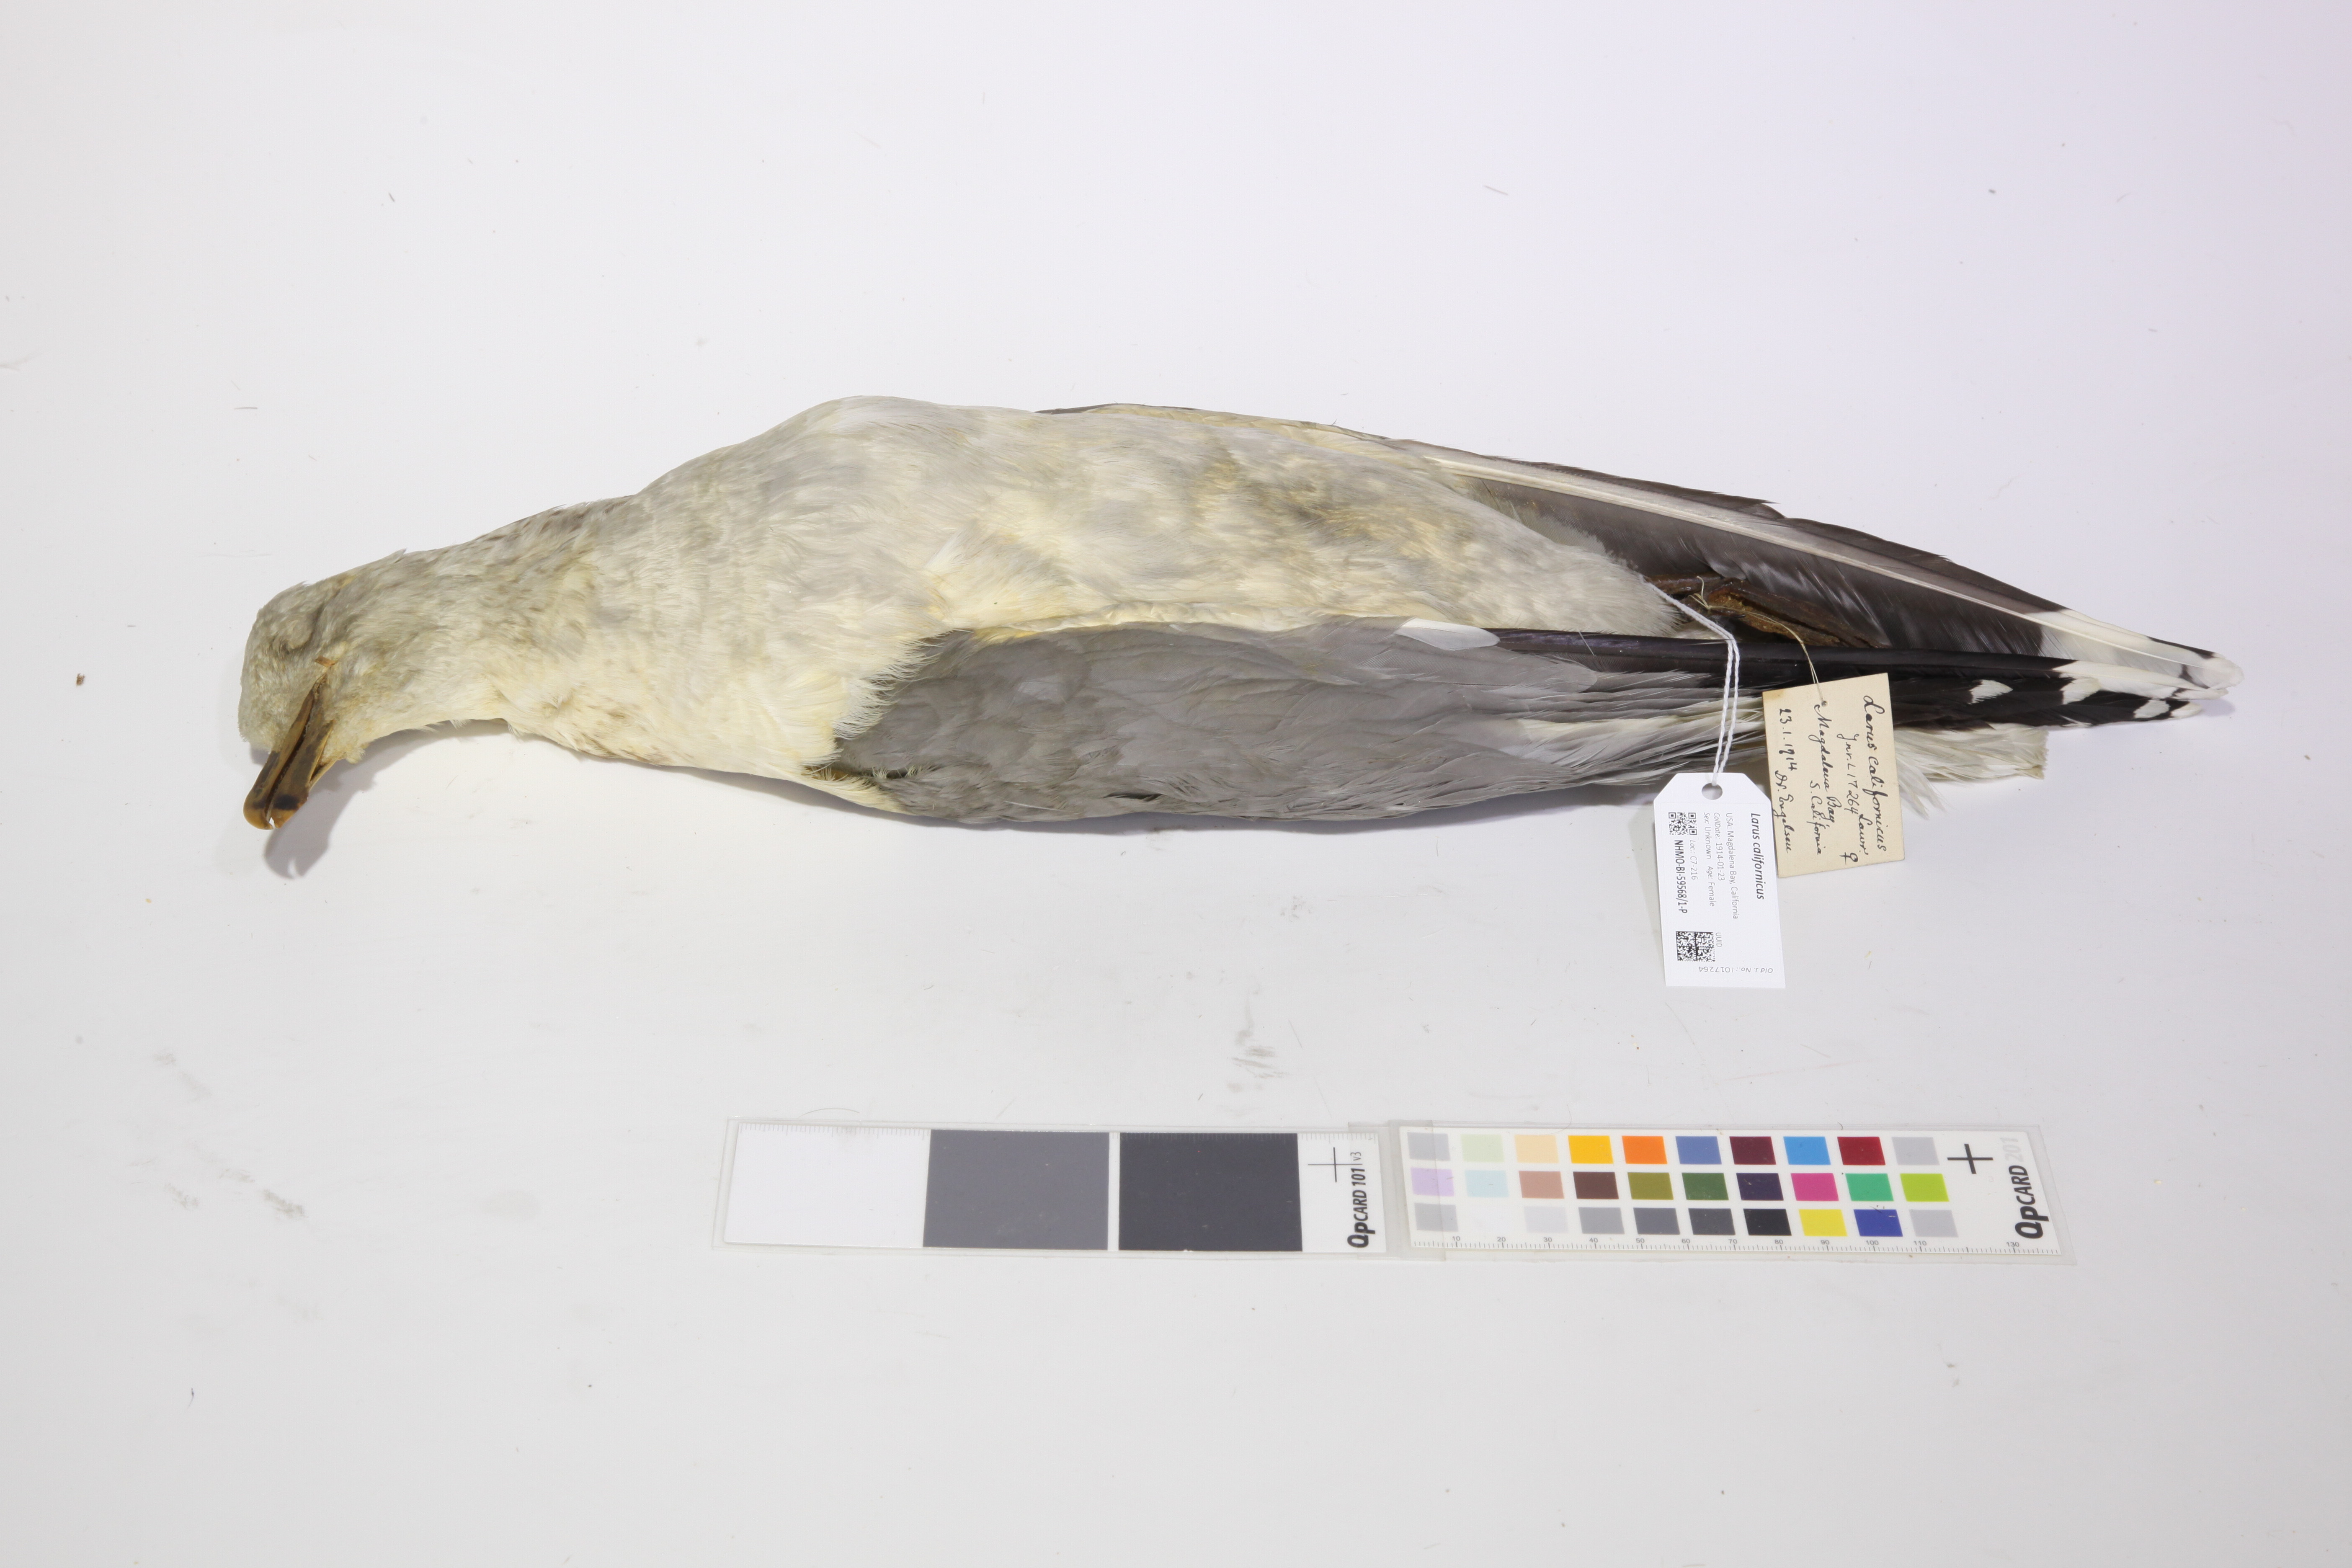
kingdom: Animalia
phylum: Chordata
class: Aves
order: Charadriiformes
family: Laridae
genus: Larus
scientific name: Larus californicus
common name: California gull
